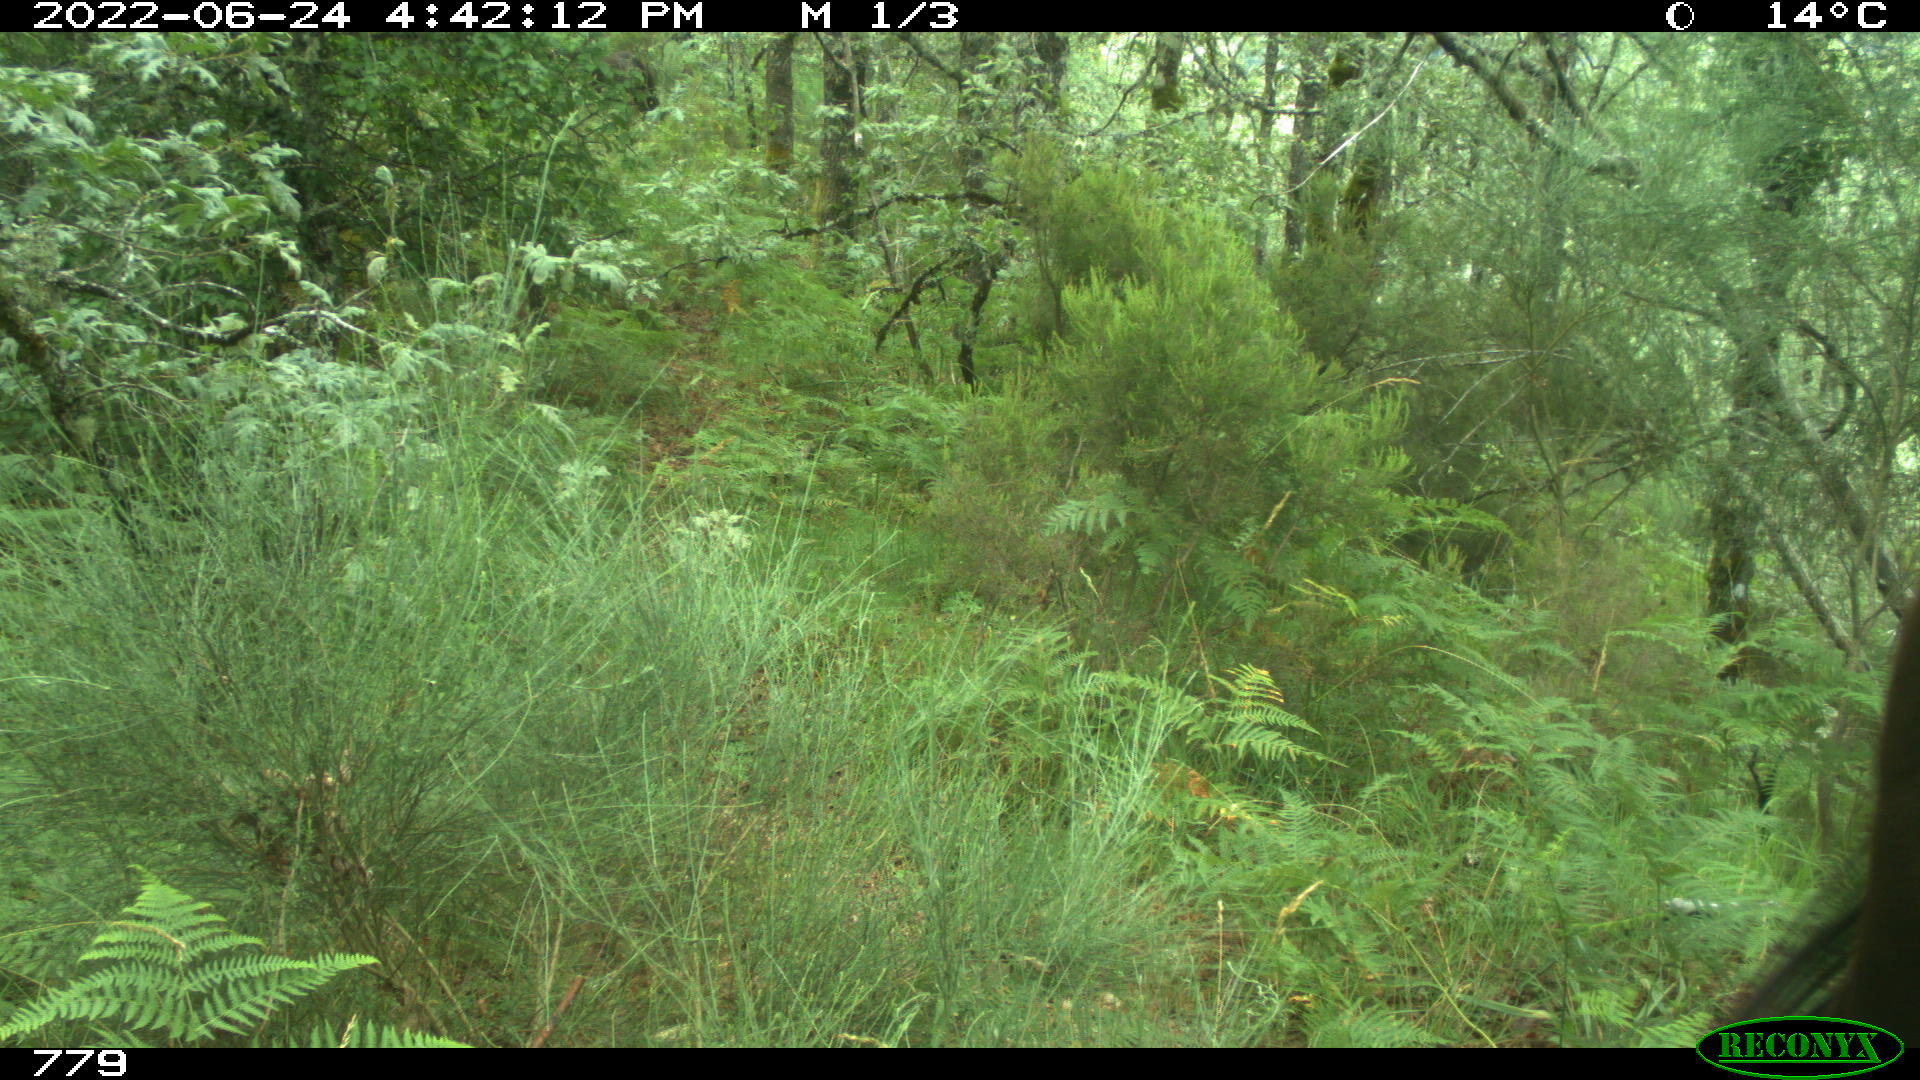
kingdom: Animalia
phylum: Chordata
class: Mammalia
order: Perissodactyla
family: Equidae
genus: Equus
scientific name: Equus caballus
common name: Horse
